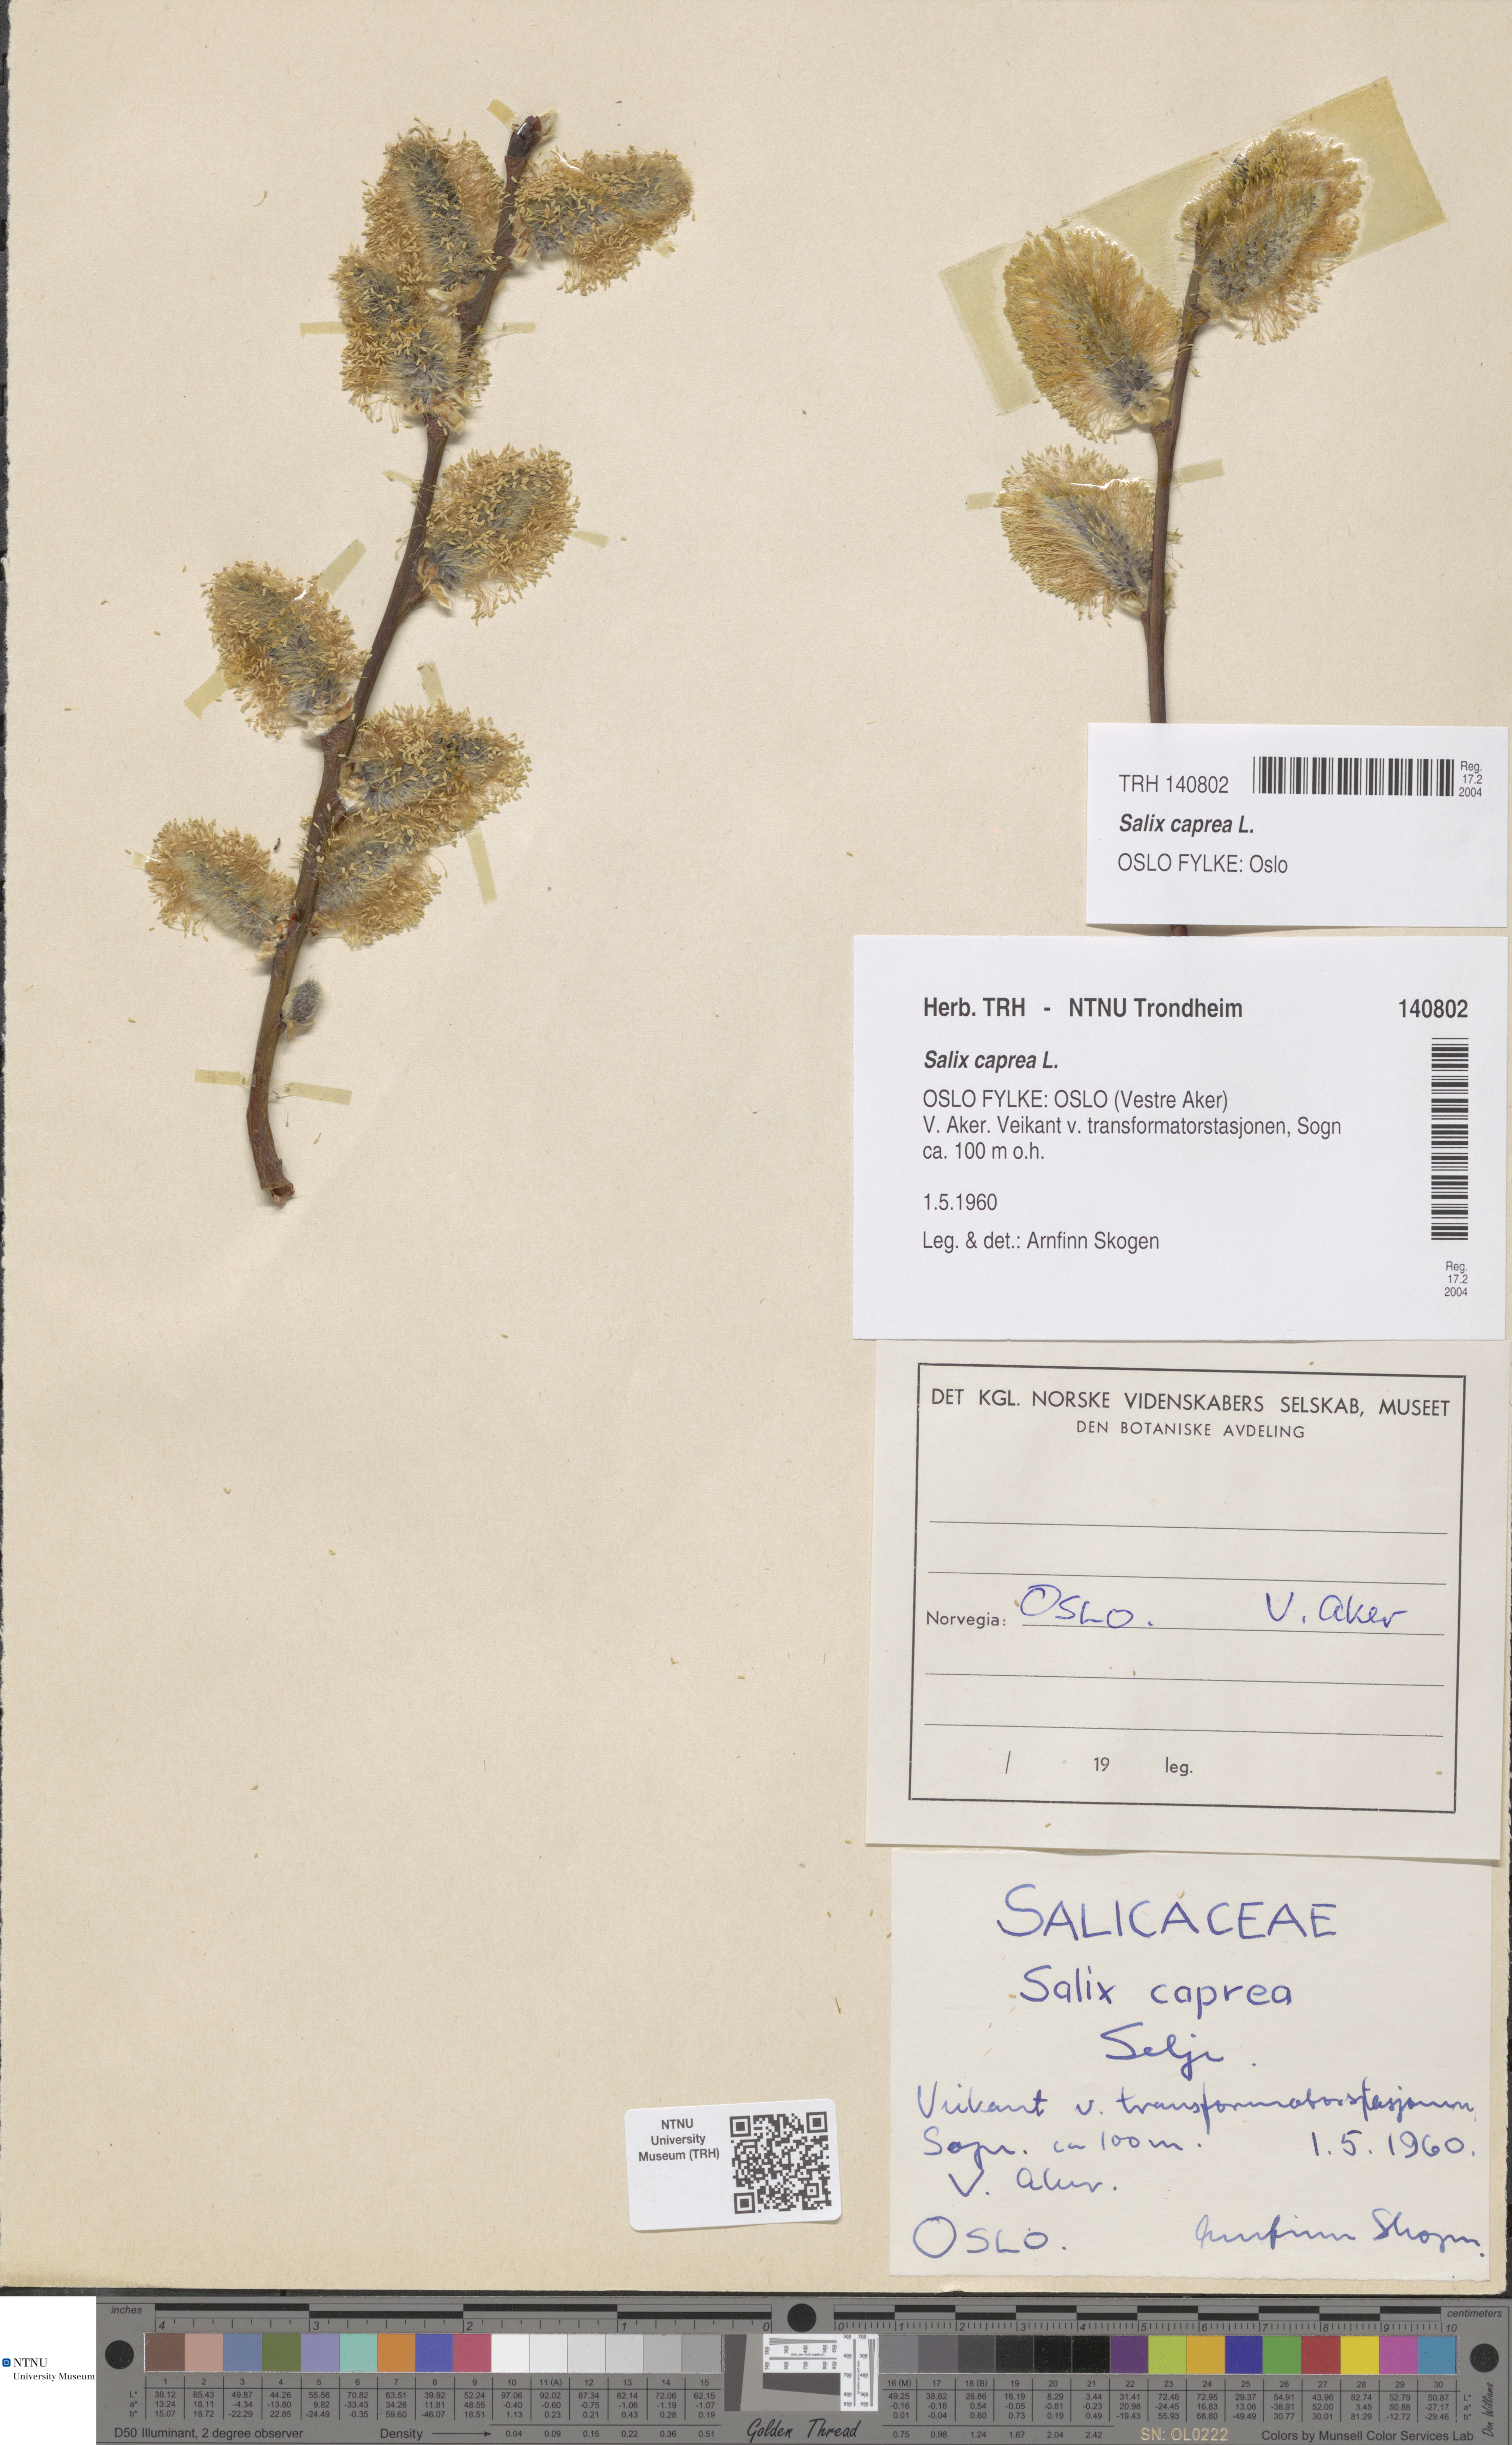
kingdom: Plantae
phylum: Tracheophyta
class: Magnoliopsida
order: Malpighiales
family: Salicaceae
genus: Salix
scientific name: Salix caprea
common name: Goat willow
